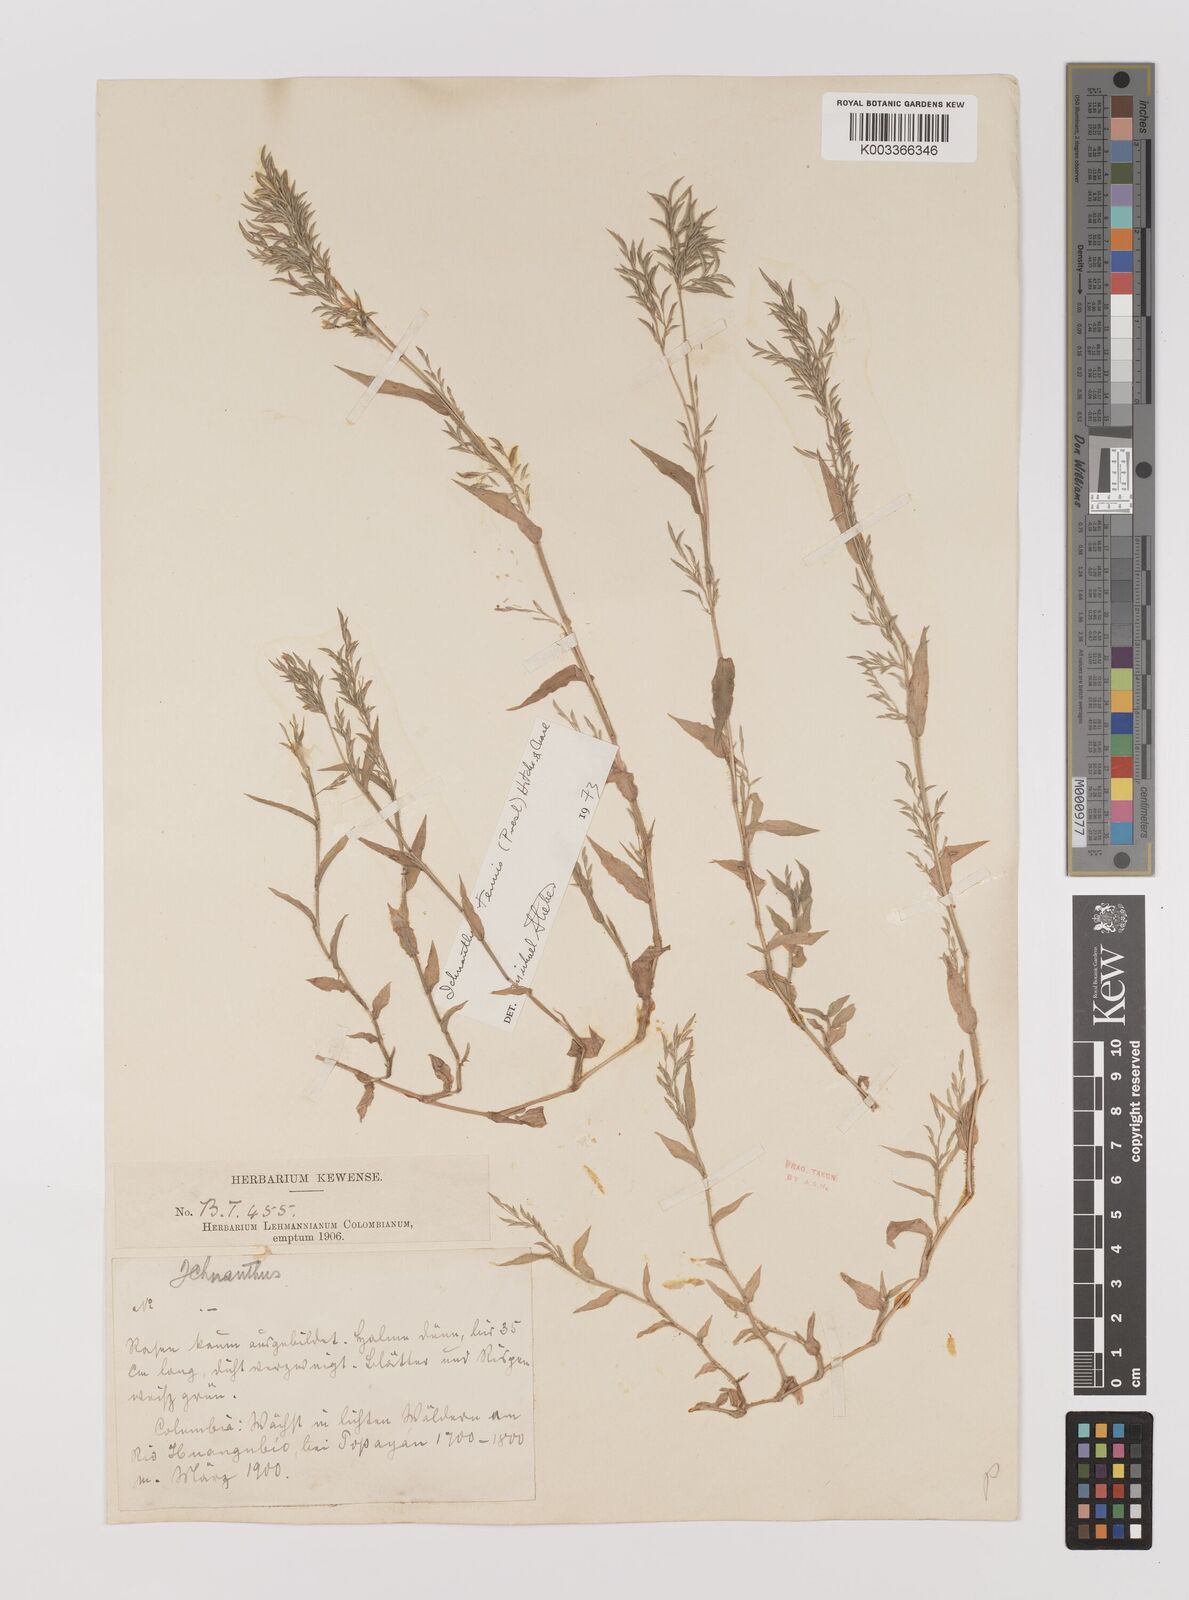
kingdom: Plantae
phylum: Tracheophyta
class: Liliopsida
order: Poales
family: Poaceae
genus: Ichnanthus
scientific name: Ichnanthus tenuis
